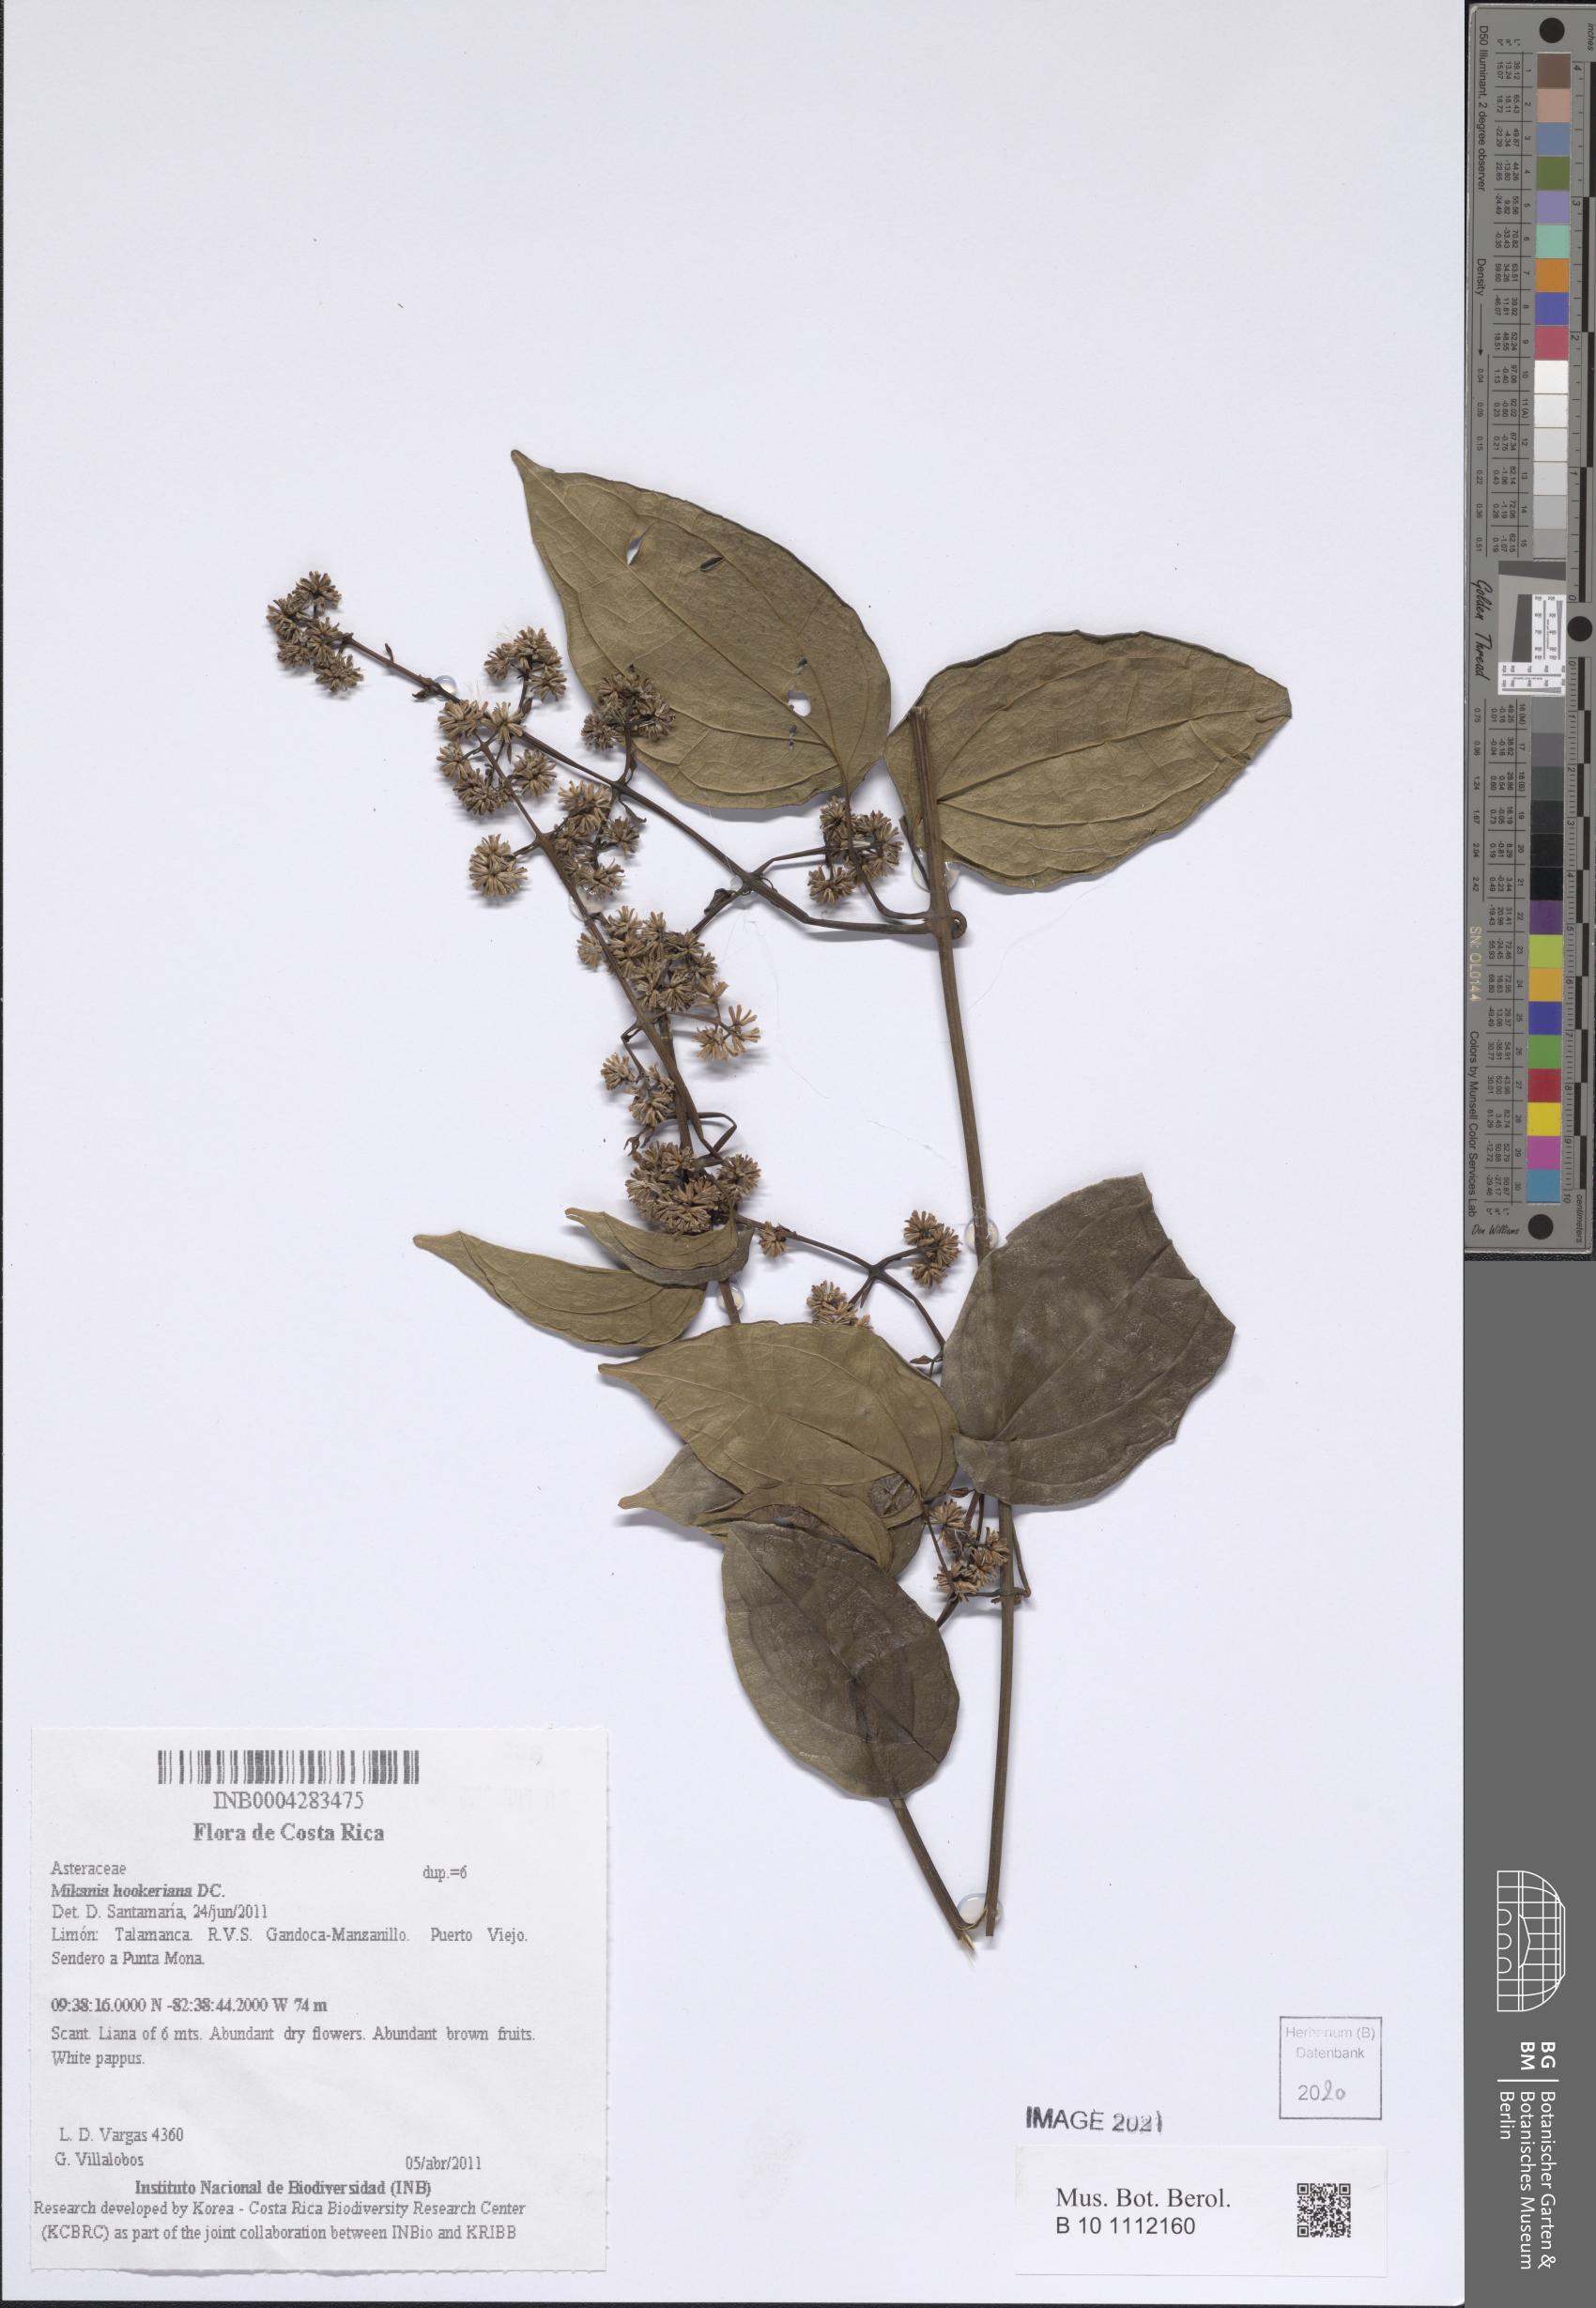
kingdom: Plantae
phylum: Tracheophyta
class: Magnoliopsida
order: Asterales
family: Asteraceae
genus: Mikania
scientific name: Mikania hookeriana
